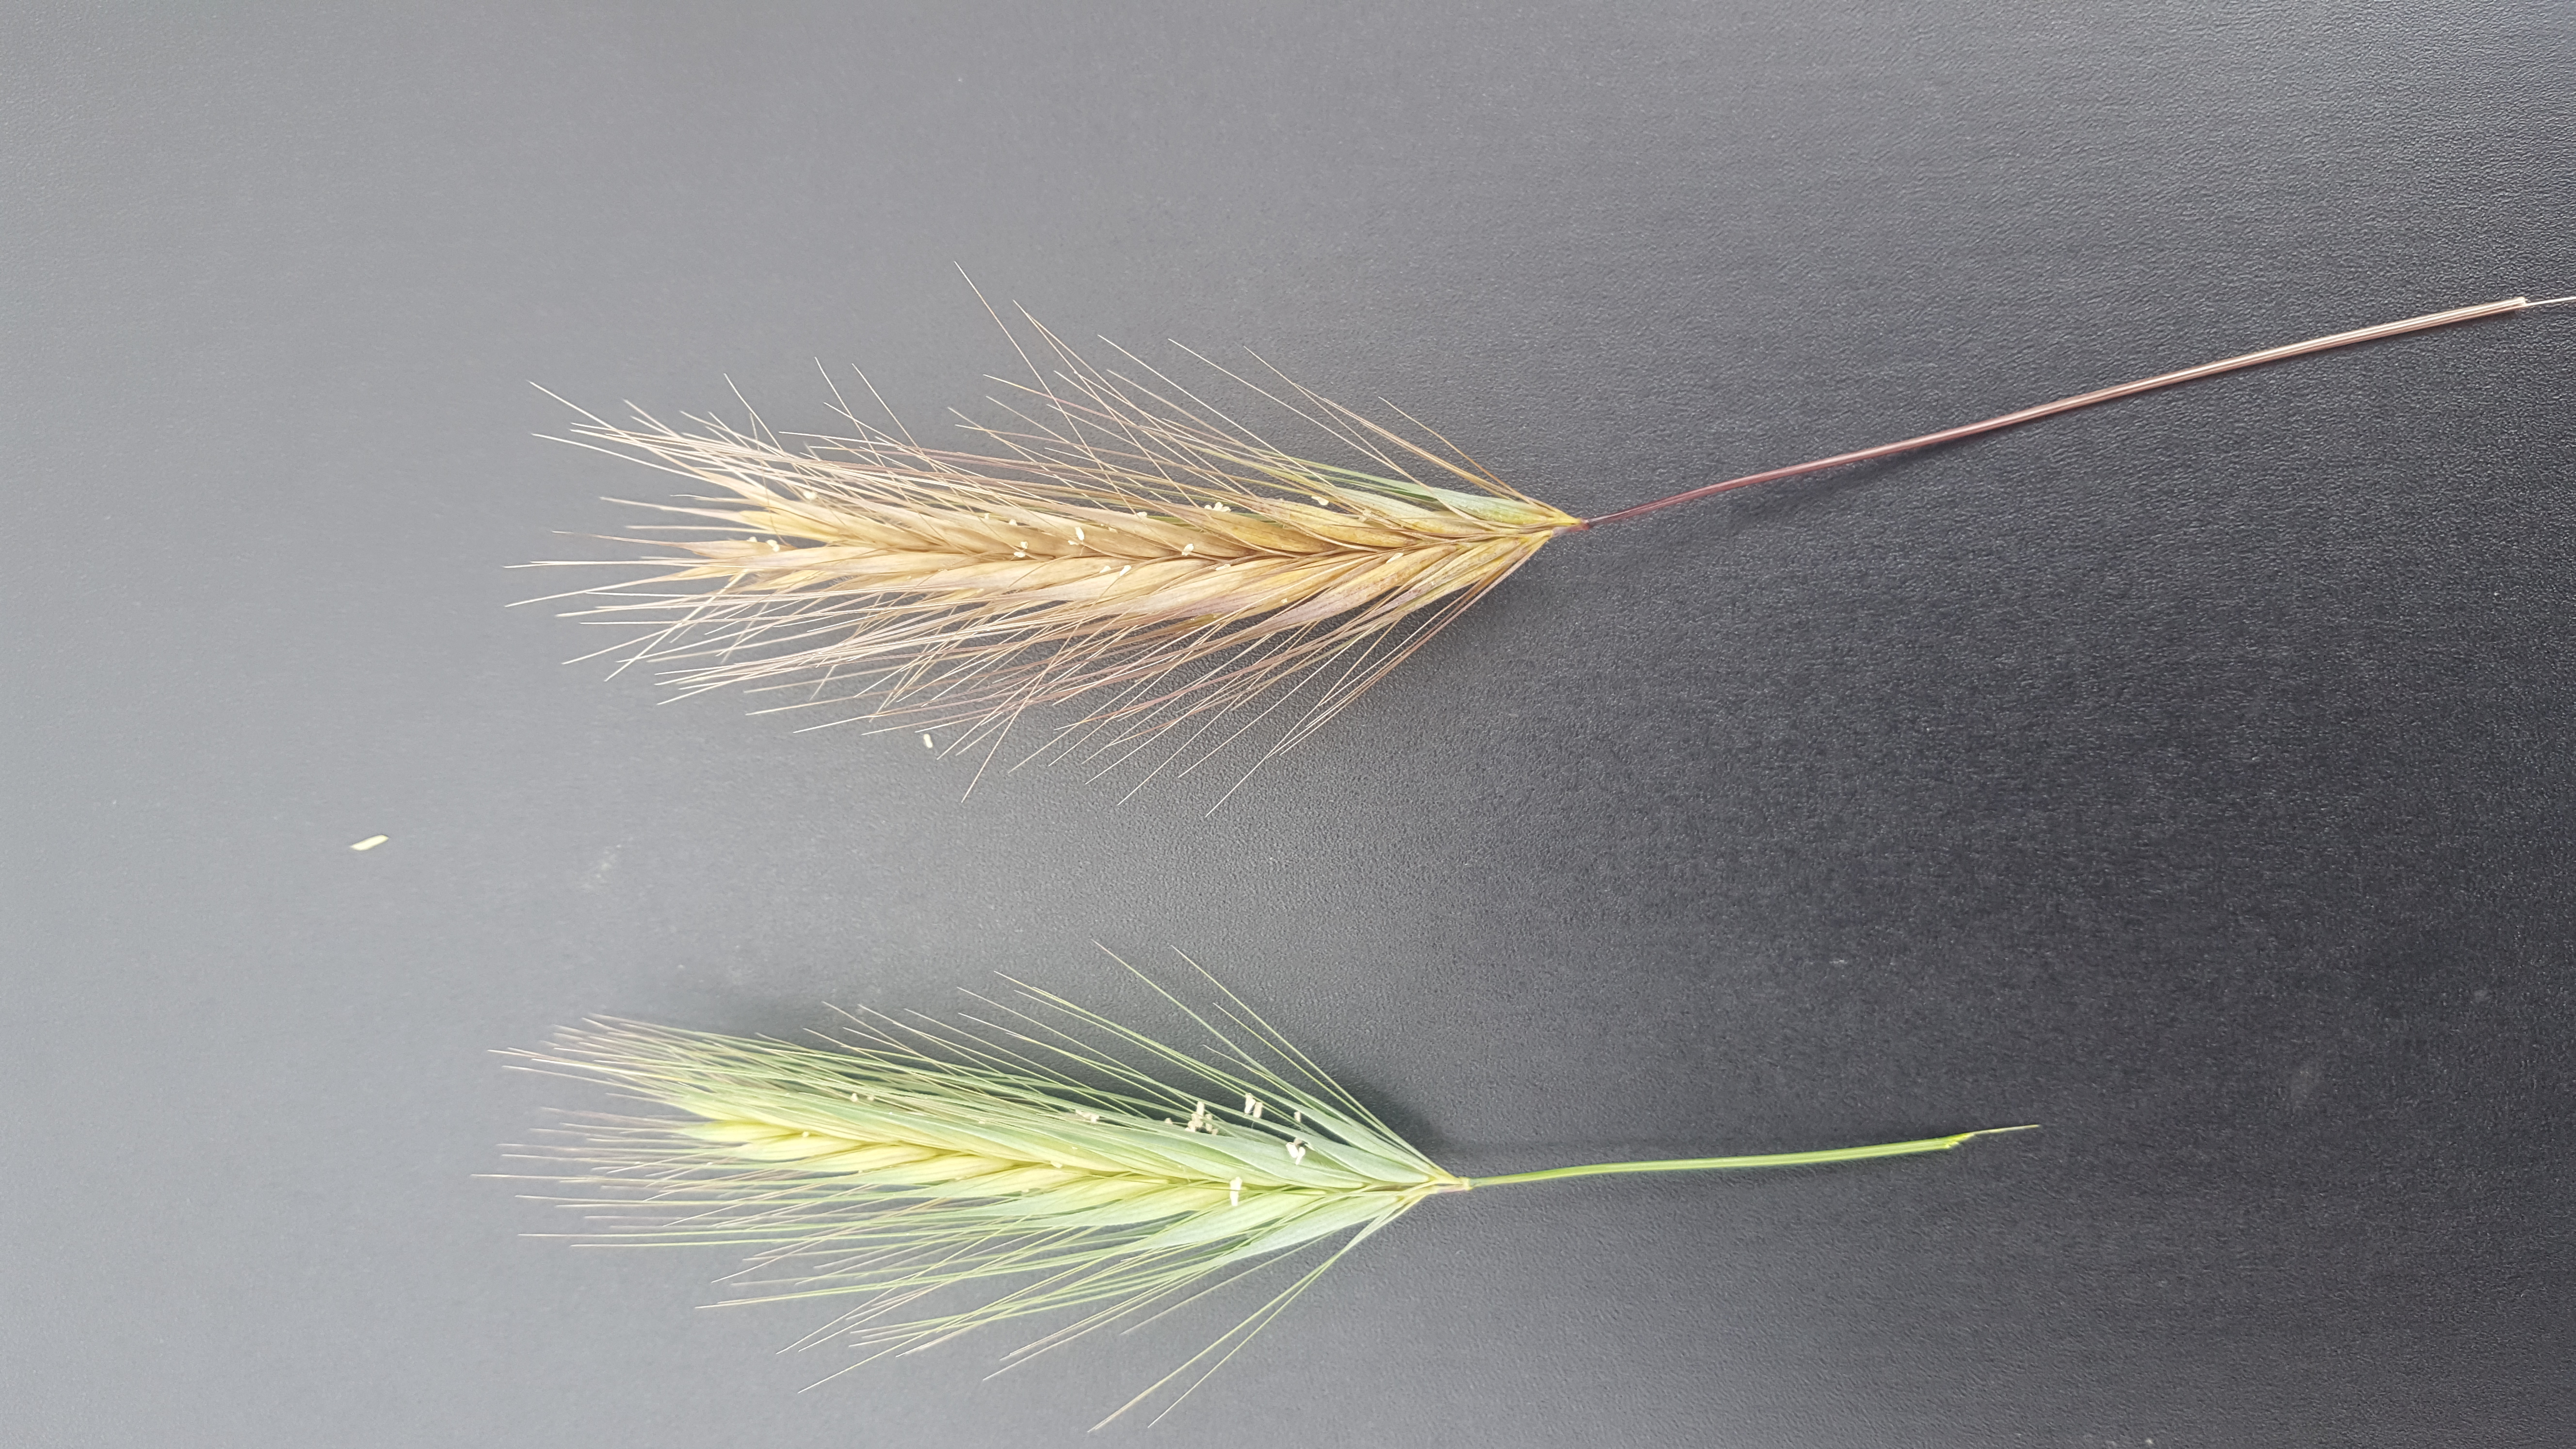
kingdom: Plantae
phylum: Tracheophyta
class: Liliopsida
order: Poales
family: Poaceae
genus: Hordeum
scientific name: Hordeum murinum
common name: Wall barley
